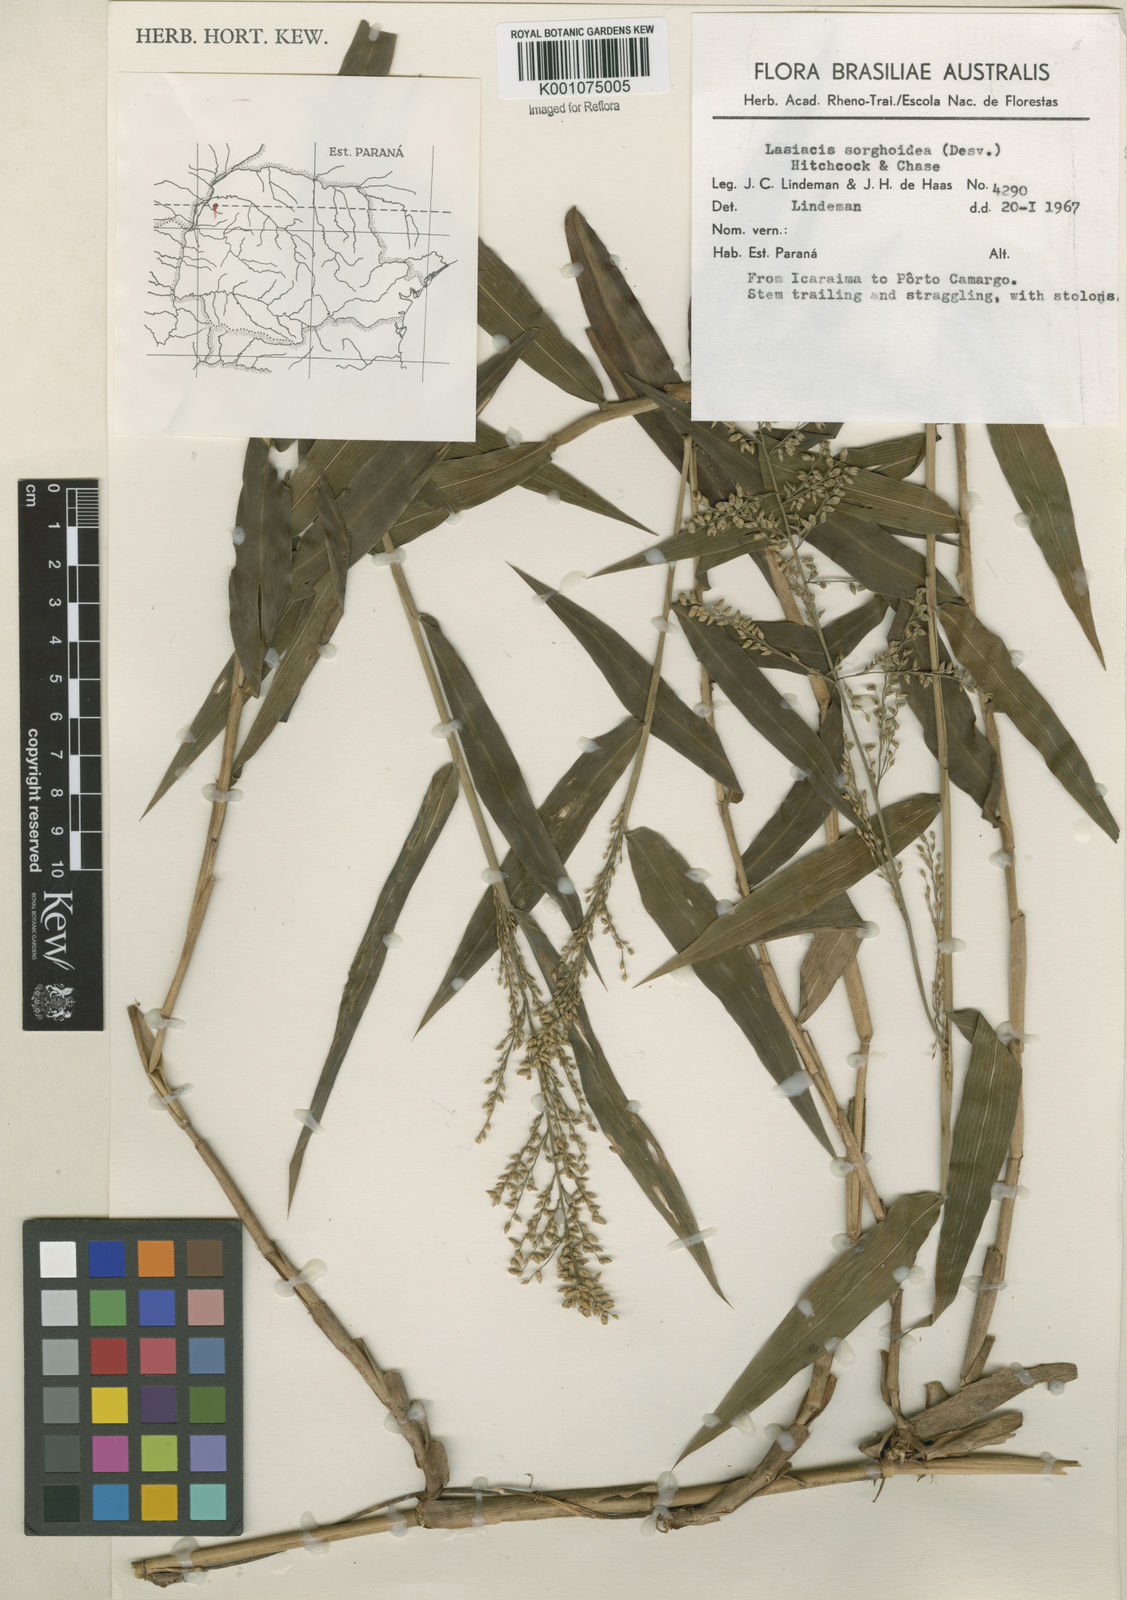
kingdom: Plantae
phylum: Tracheophyta
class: Liliopsida
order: Poales
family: Poaceae
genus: Lasiacis
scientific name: Lasiacis maculata
